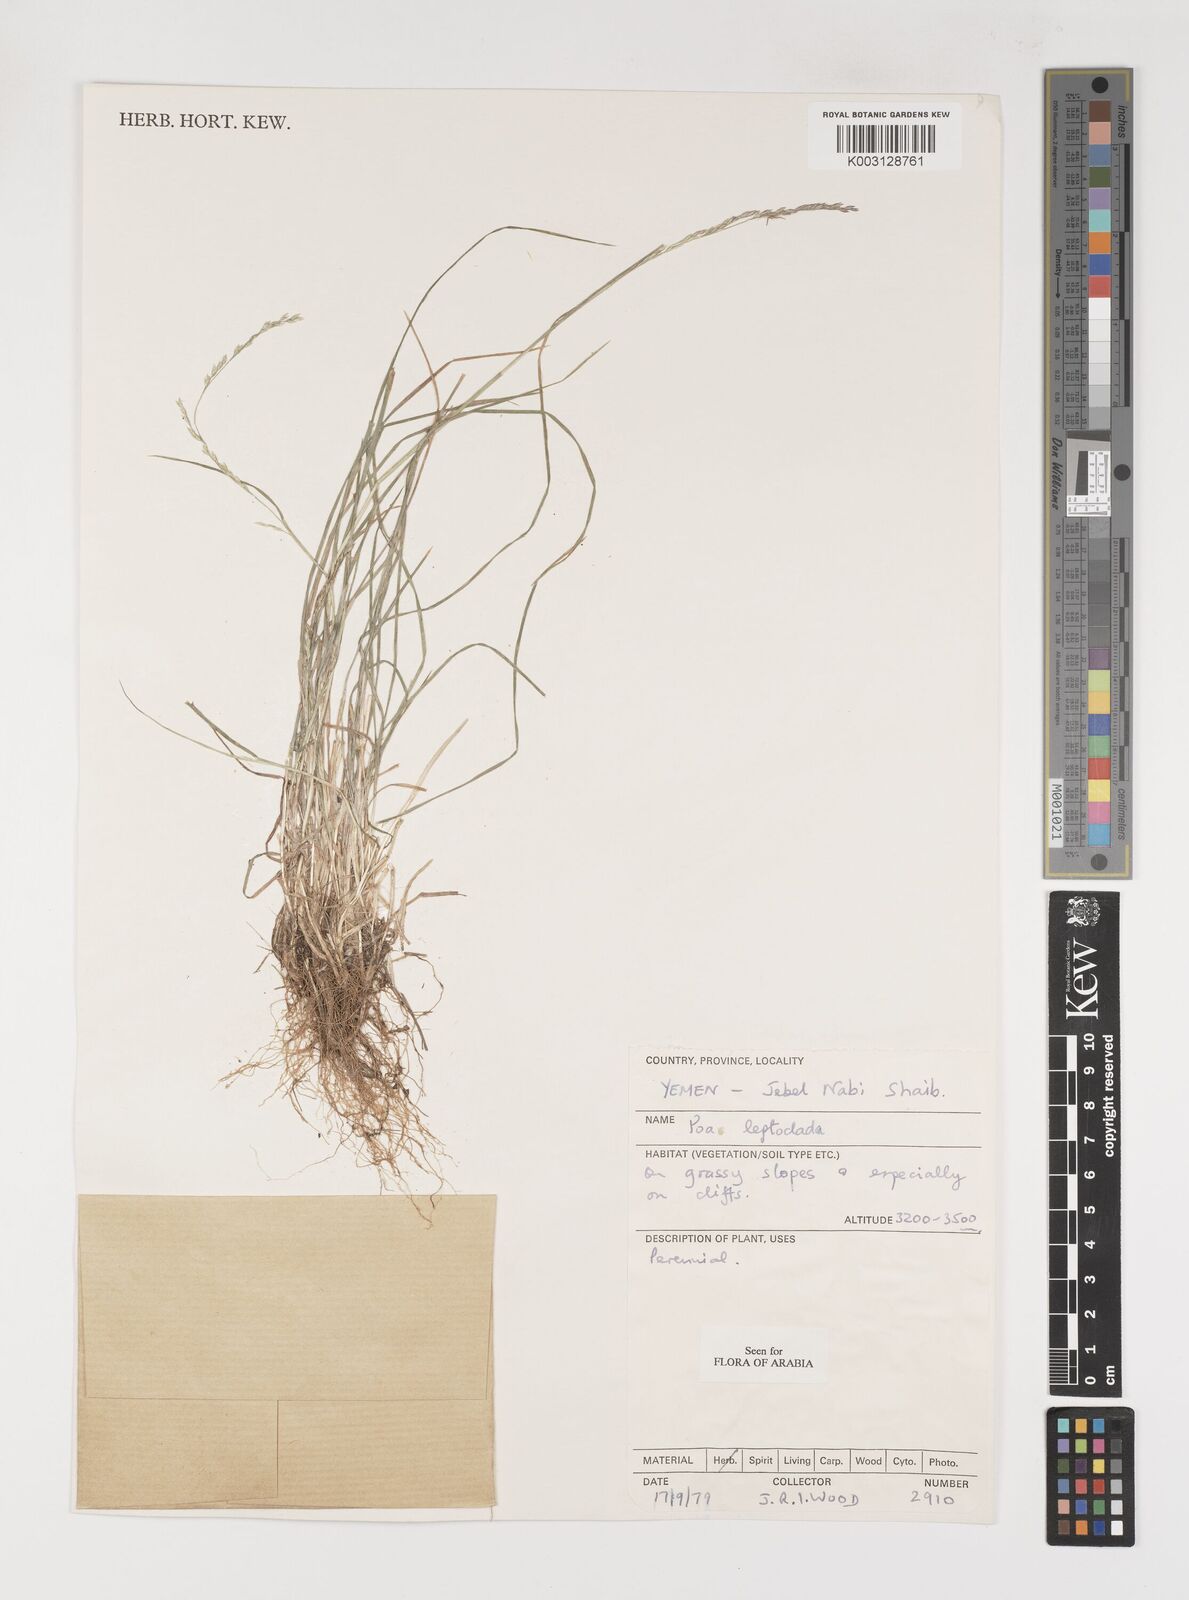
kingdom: Plantae
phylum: Tracheophyta
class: Liliopsida
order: Poales
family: Poaceae
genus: Poa
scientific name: Poa leptoclada
